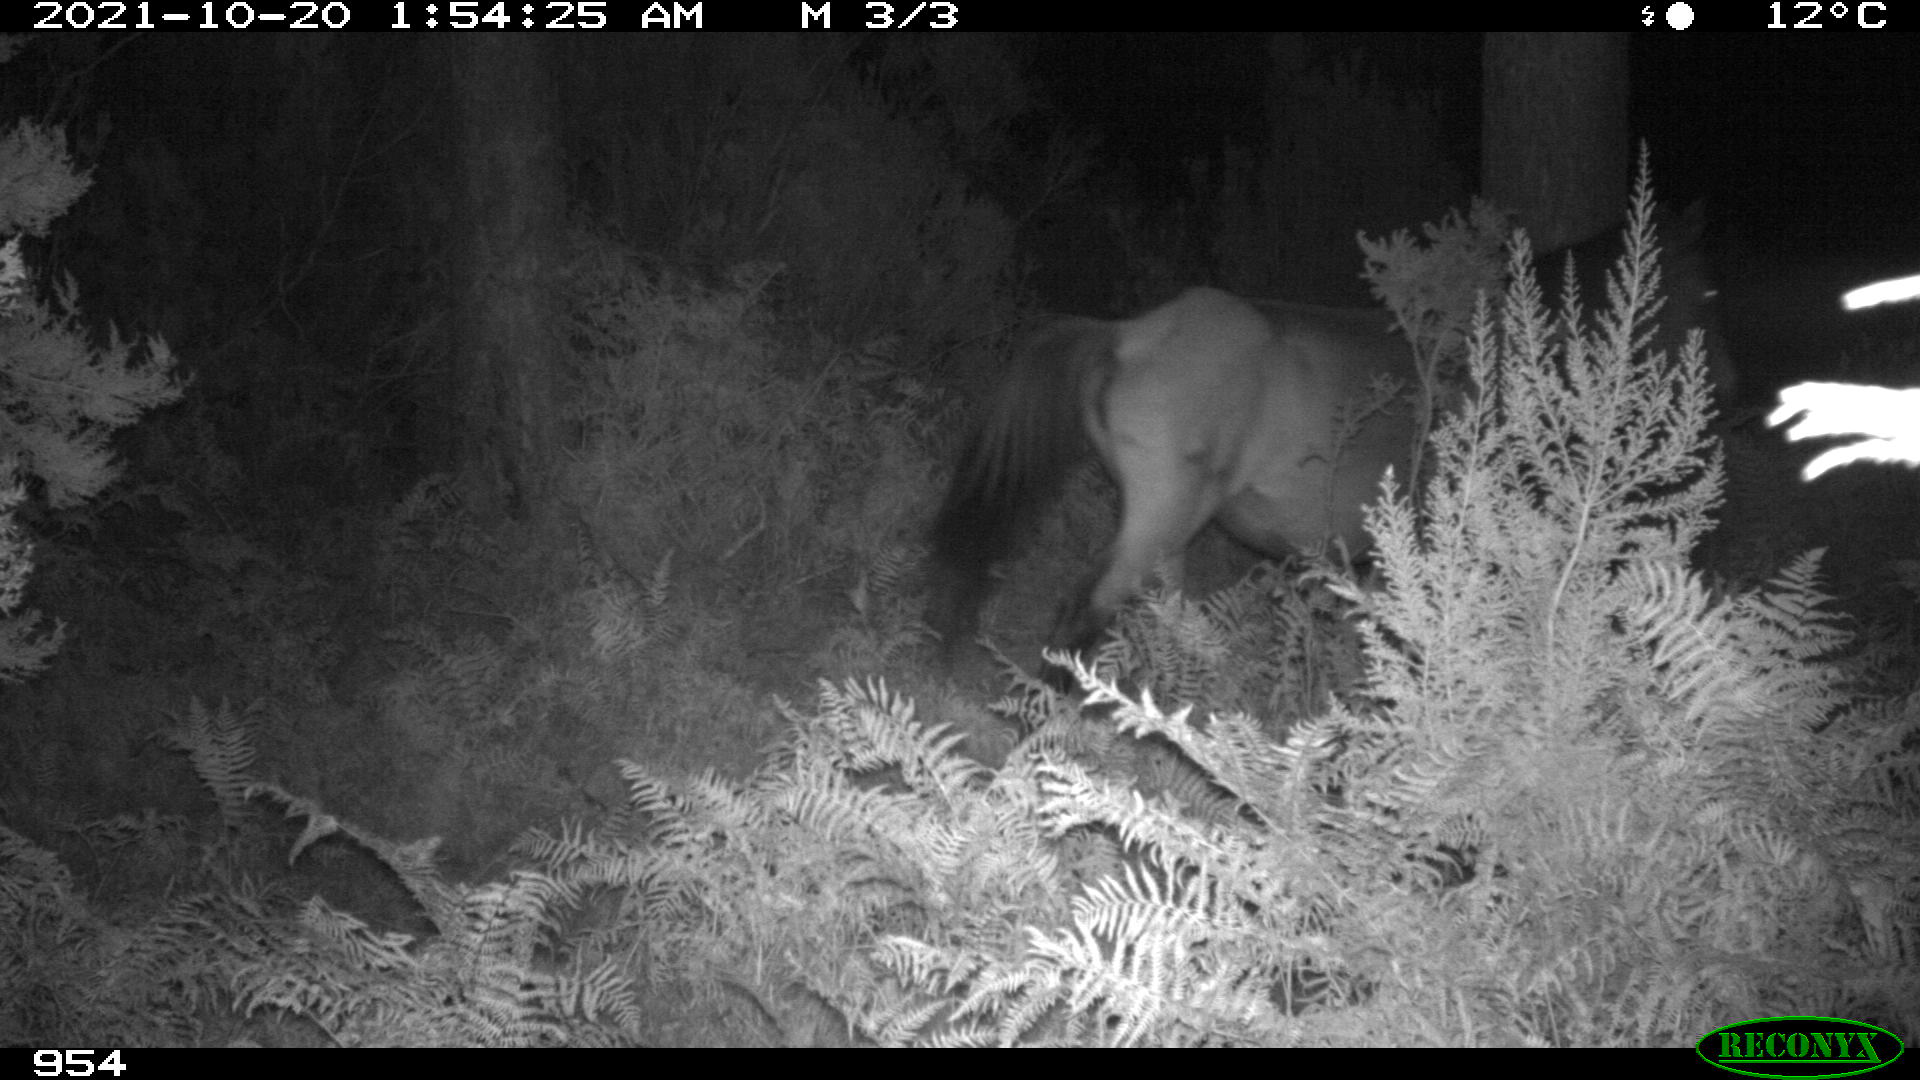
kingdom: Animalia
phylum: Chordata
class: Mammalia
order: Perissodactyla
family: Equidae
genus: Equus
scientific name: Equus caballus
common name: Horse
